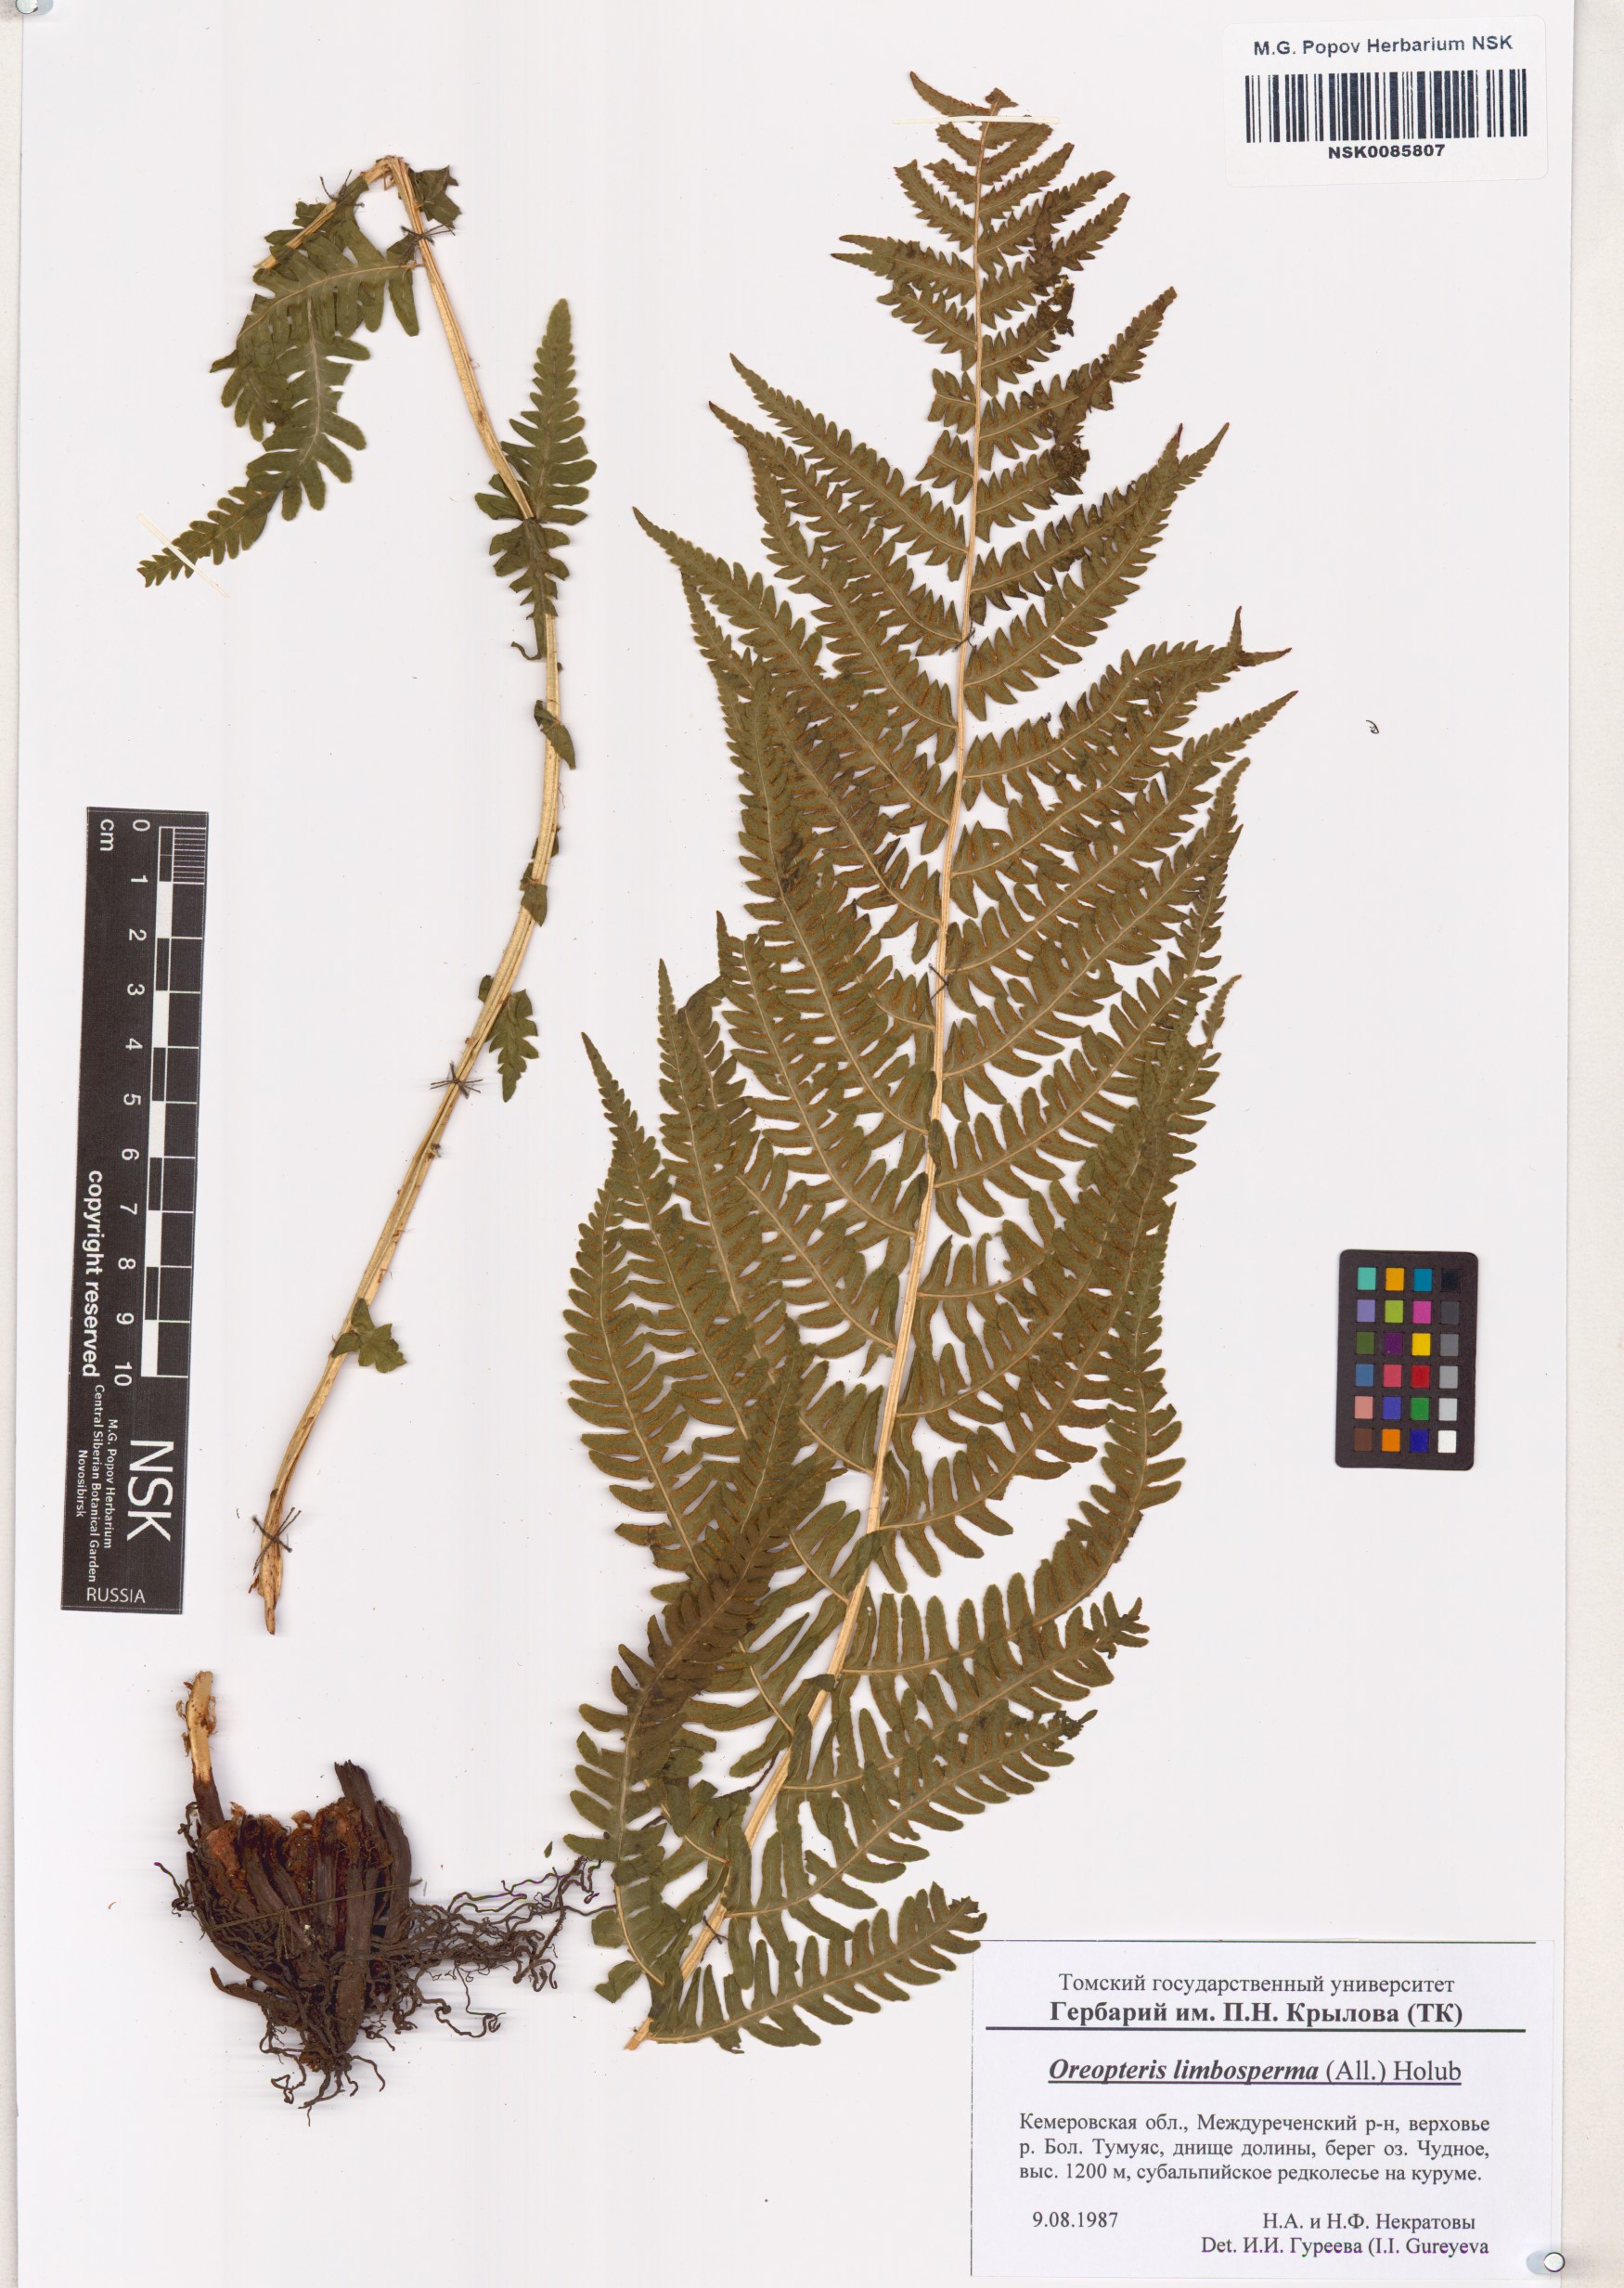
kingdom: Plantae
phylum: Tracheophyta
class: Polypodiopsida
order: Polypodiales
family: Thelypteridaceae
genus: Oreopteris
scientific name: Oreopteris limbosperma
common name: Lemon-scented fern
